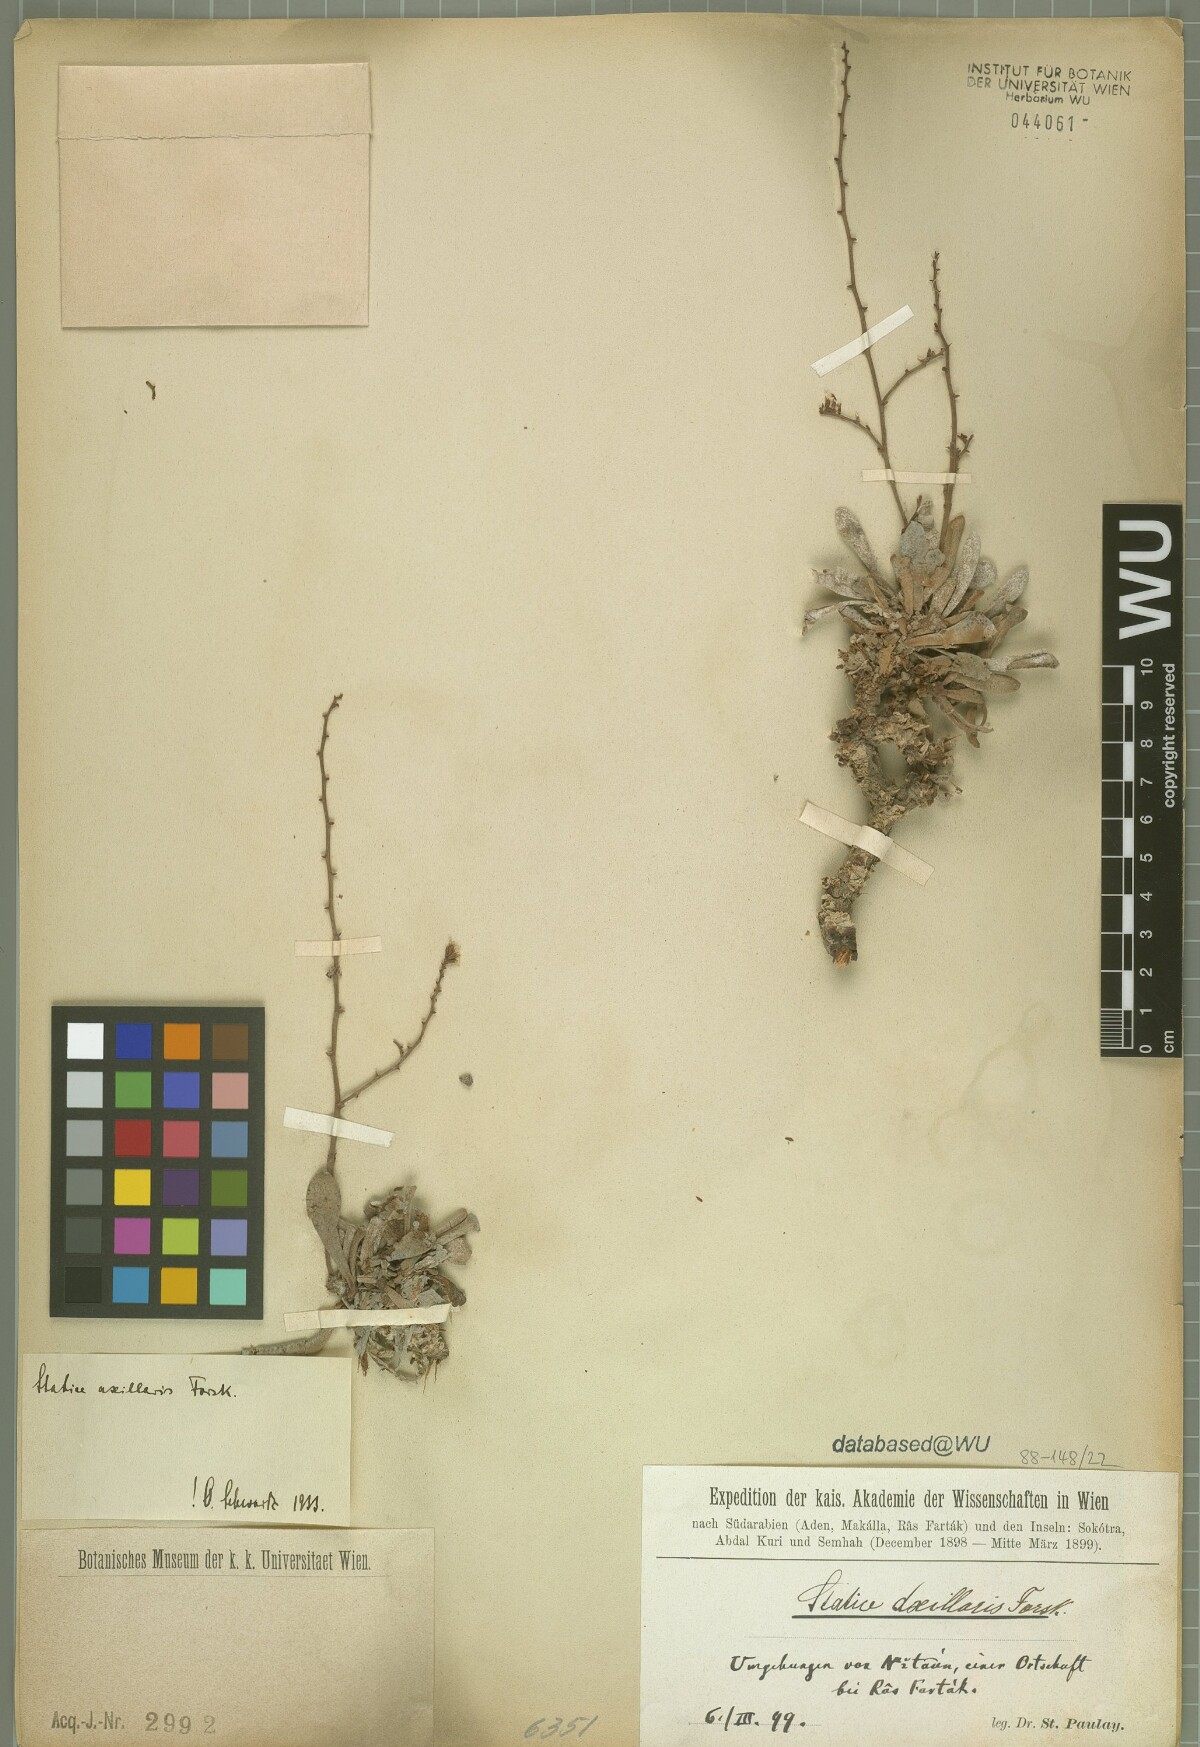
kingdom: Plantae
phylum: Tracheophyta
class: Magnoliopsida
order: Caryophyllales
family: Plumbaginaceae
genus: Limonium
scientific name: Limonium axillare
